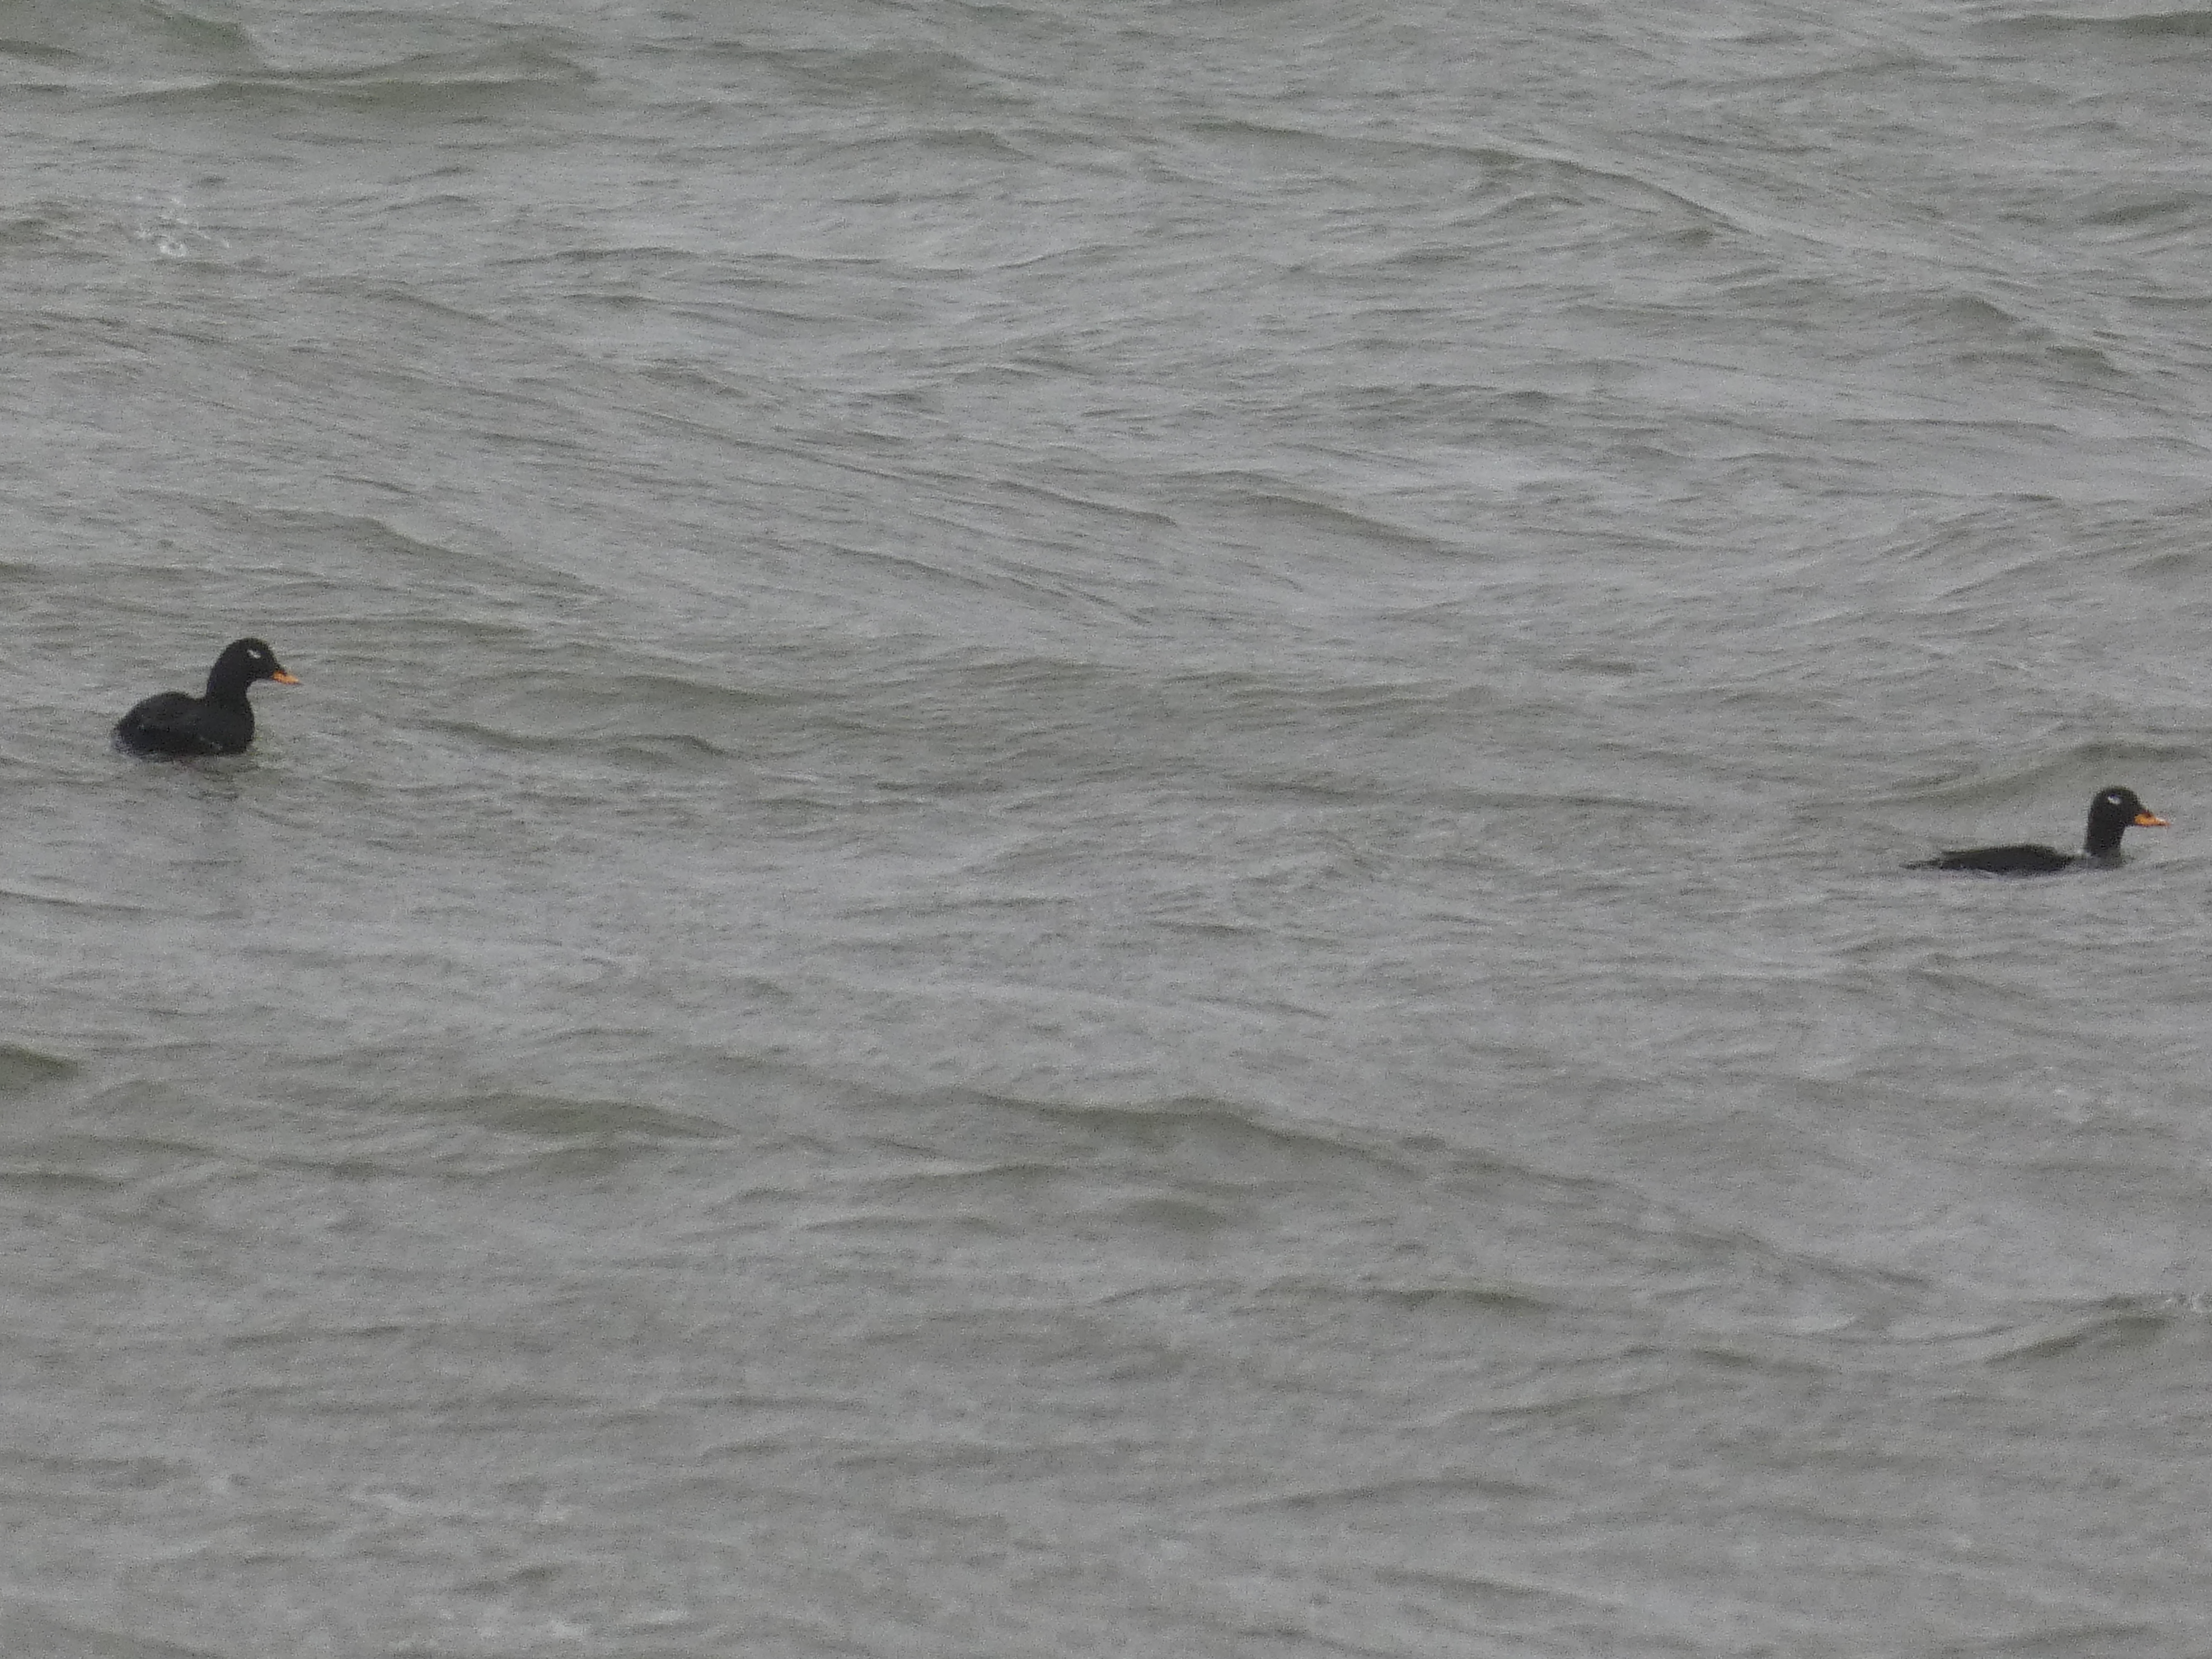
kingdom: Animalia
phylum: Chordata
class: Aves
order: Anseriformes
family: Anatidae
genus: Melanitta
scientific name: Melanitta fusca
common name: Fløjlsand
